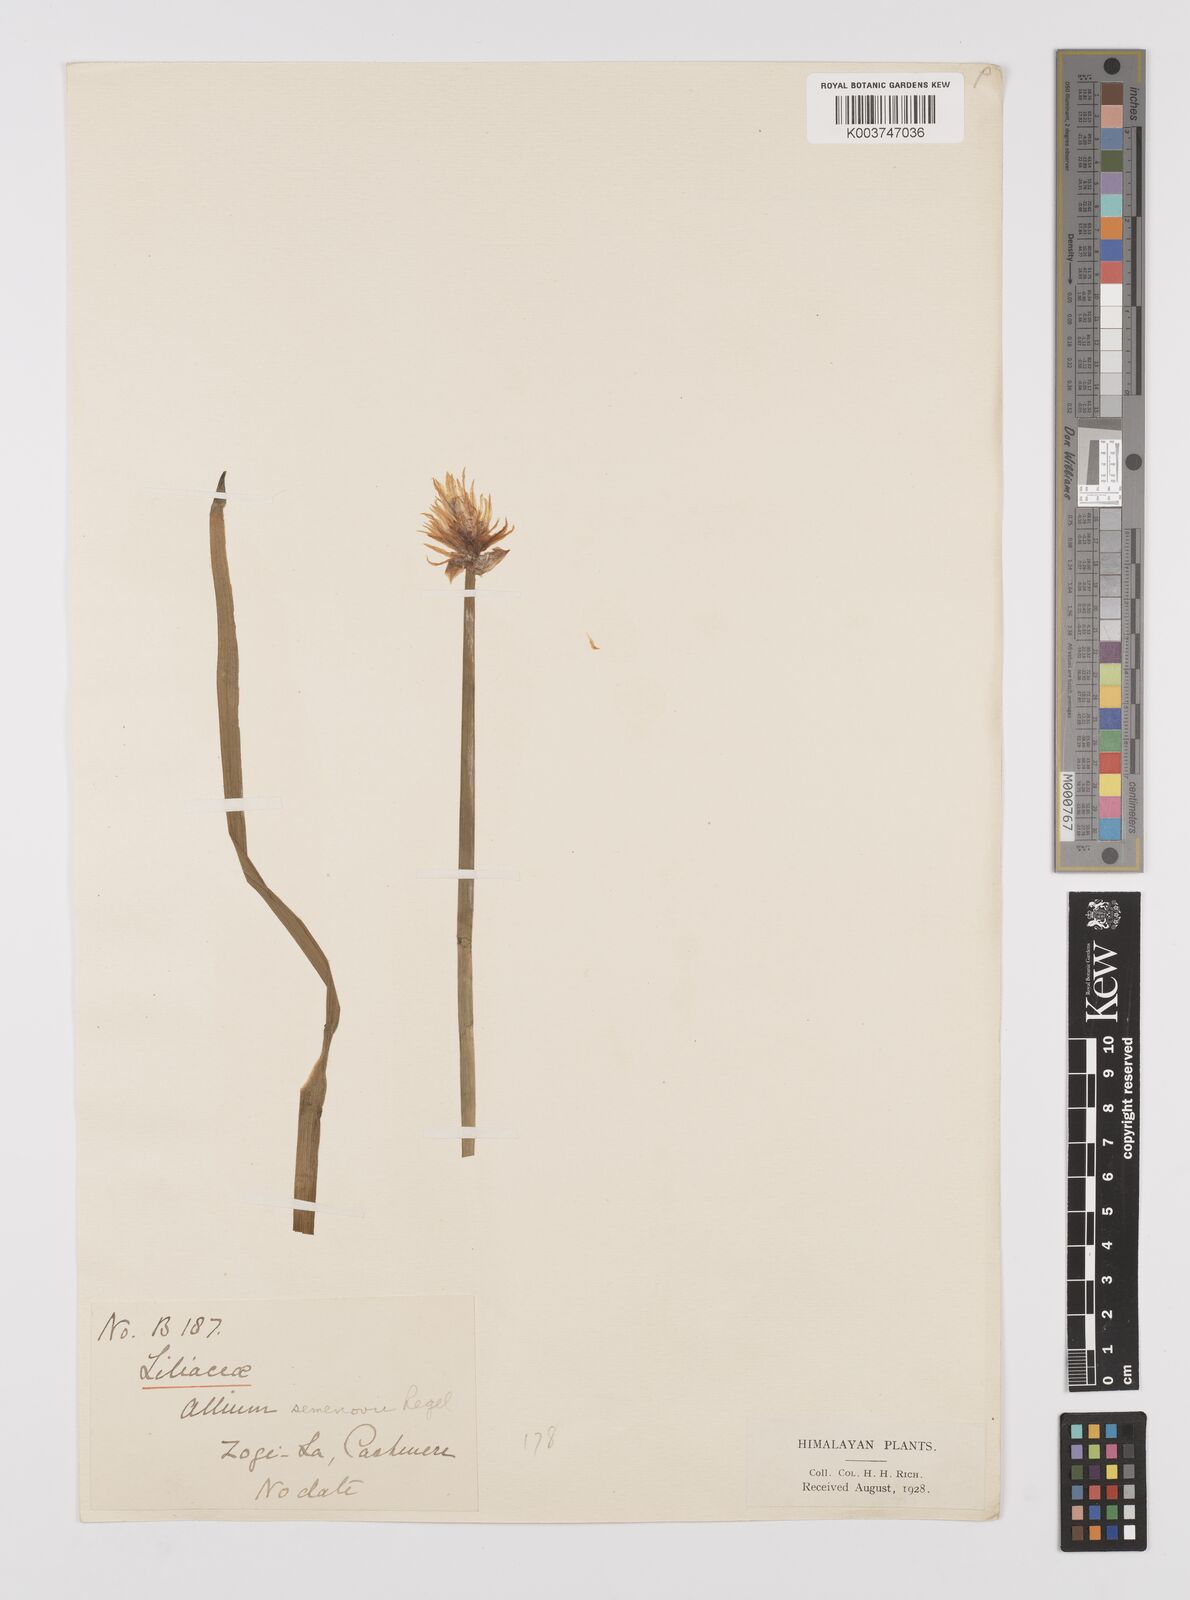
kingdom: Plantae
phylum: Tracheophyta
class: Liliopsida
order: Asparagales
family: Amaryllidaceae
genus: Allium
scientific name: Allium semenovii
